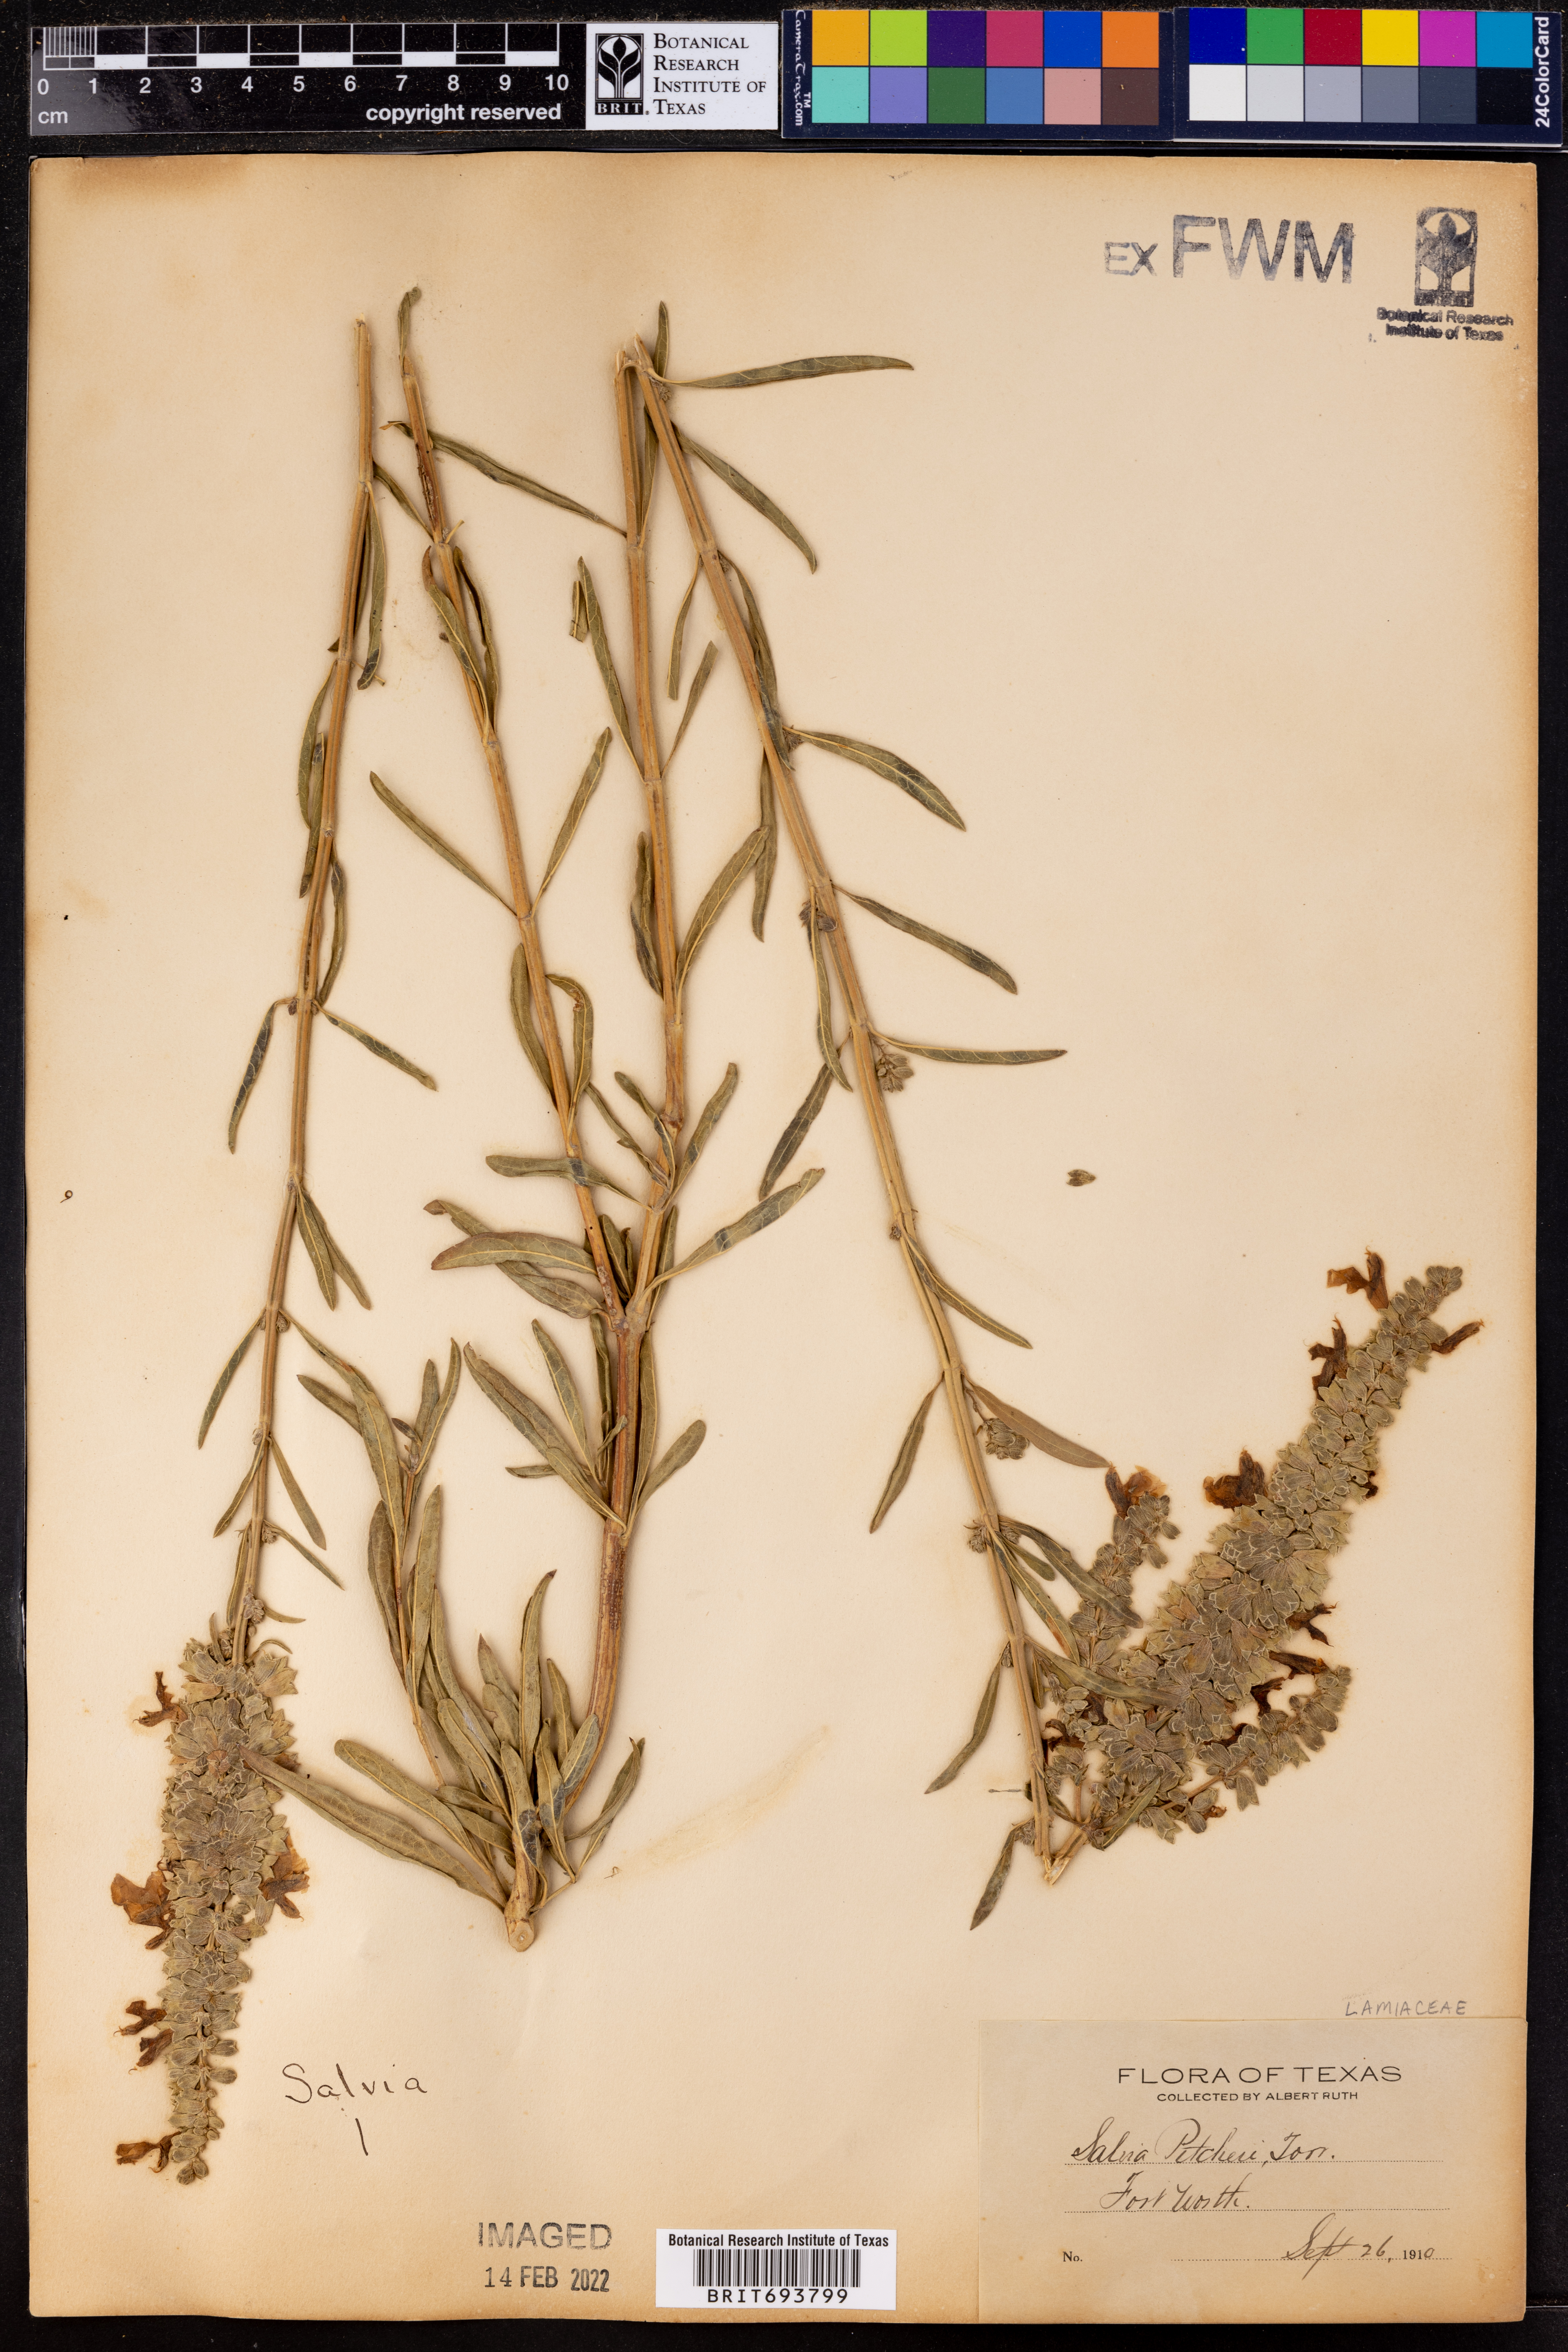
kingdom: Plantae
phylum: Tracheophyta
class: Magnoliopsida
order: Lamiales
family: Lamiaceae
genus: Salvia
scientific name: Salvia azurea
